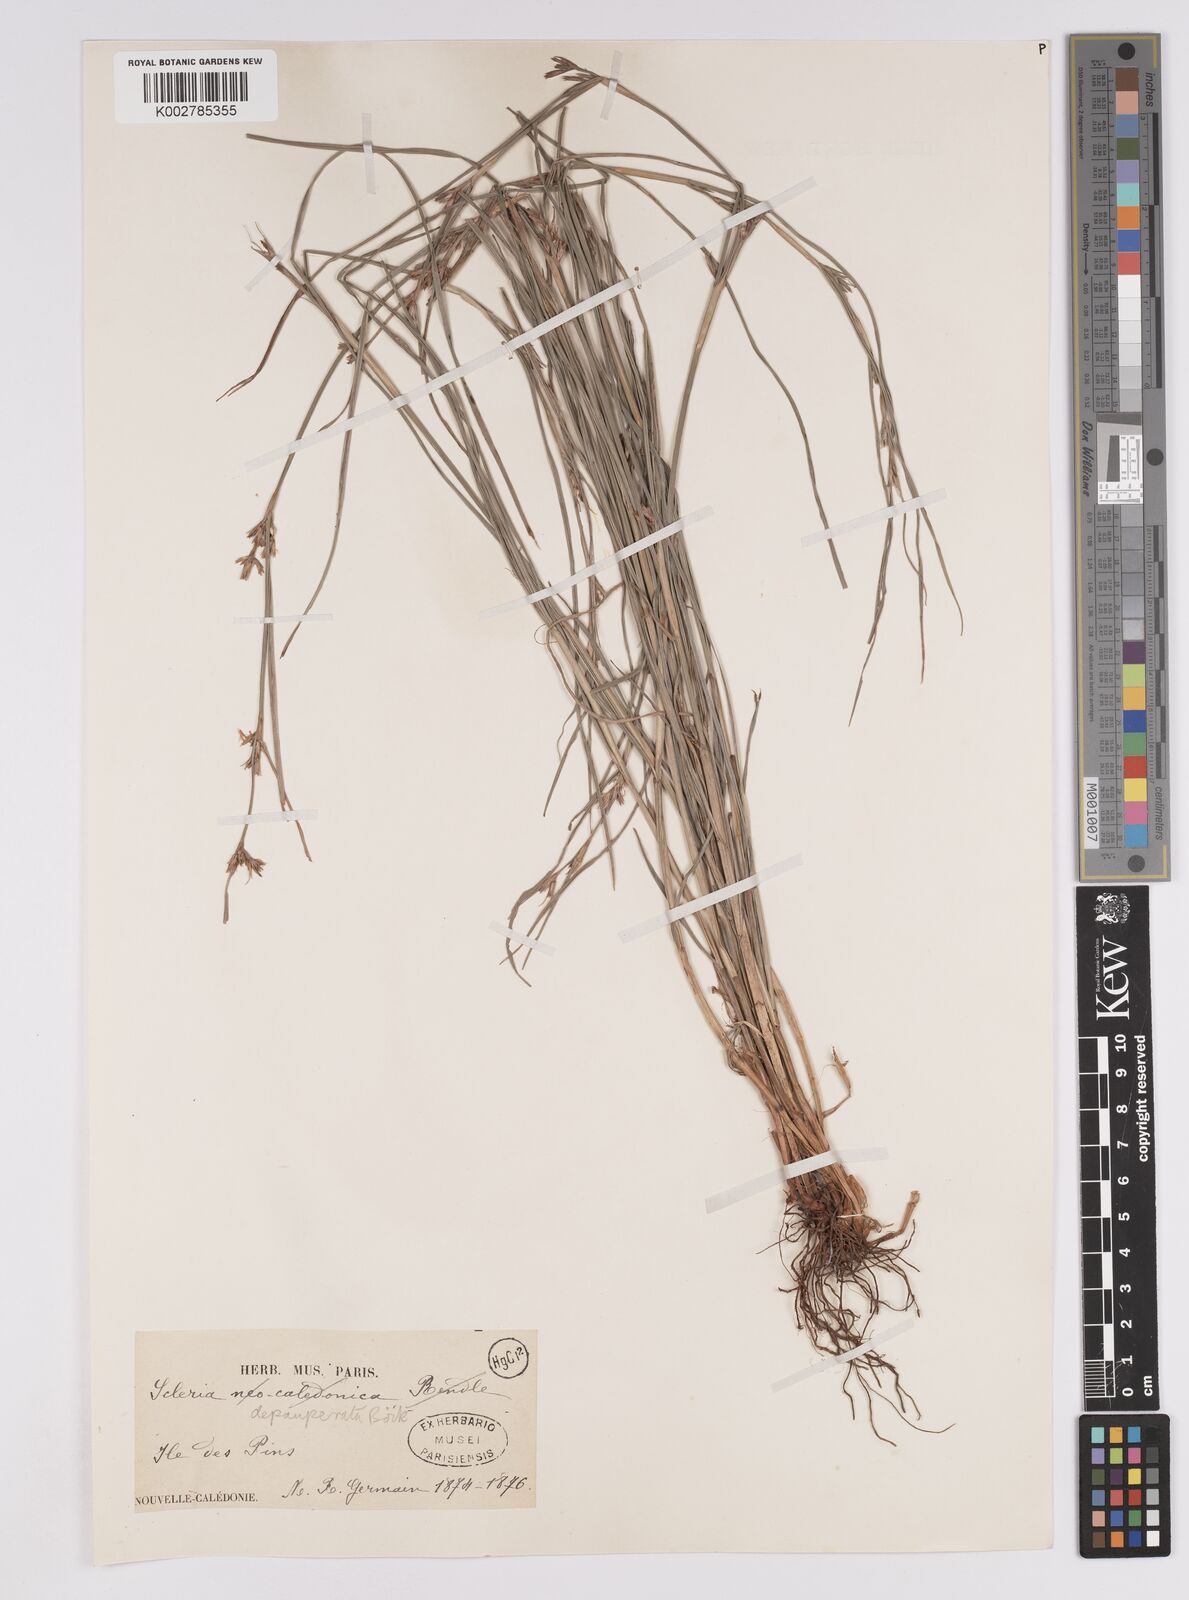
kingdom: Plantae
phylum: Tracheophyta
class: Liliopsida
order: Poales
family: Cyperaceae
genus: Scleria
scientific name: Scleria depauperata
